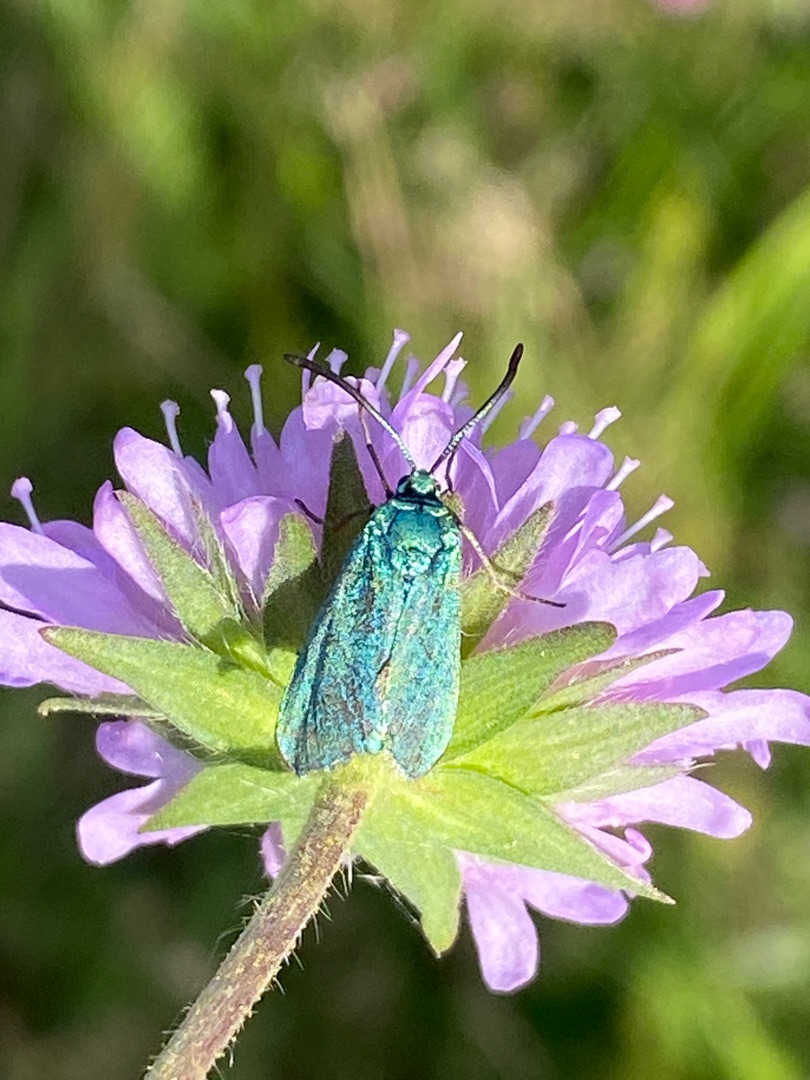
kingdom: Animalia
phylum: Arthropoda
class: Insecta
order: Lepidoptera
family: Zygaenidae
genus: Adscita
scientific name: Adscita statices
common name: Metalvinge
